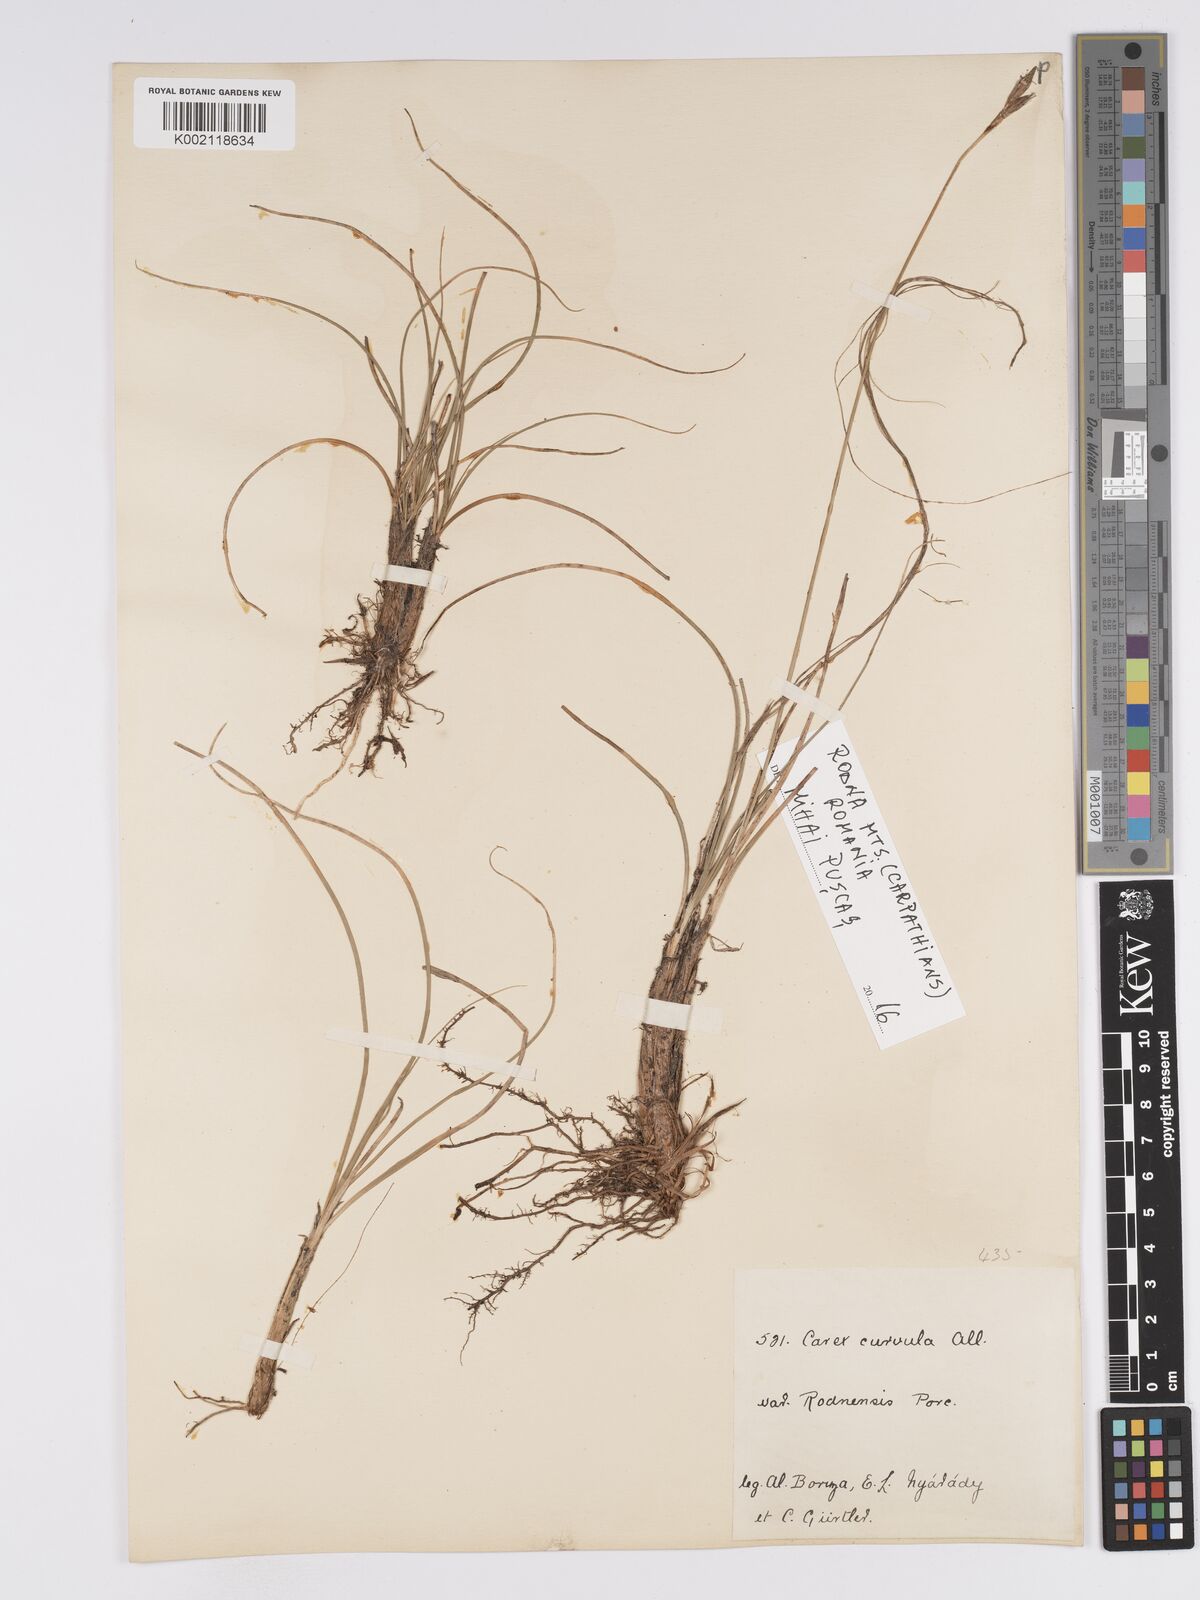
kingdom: Plantae
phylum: Tracheophyta
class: Liliopsida
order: Poales
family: Cyperaceae
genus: Carex
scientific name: Carex curvula
